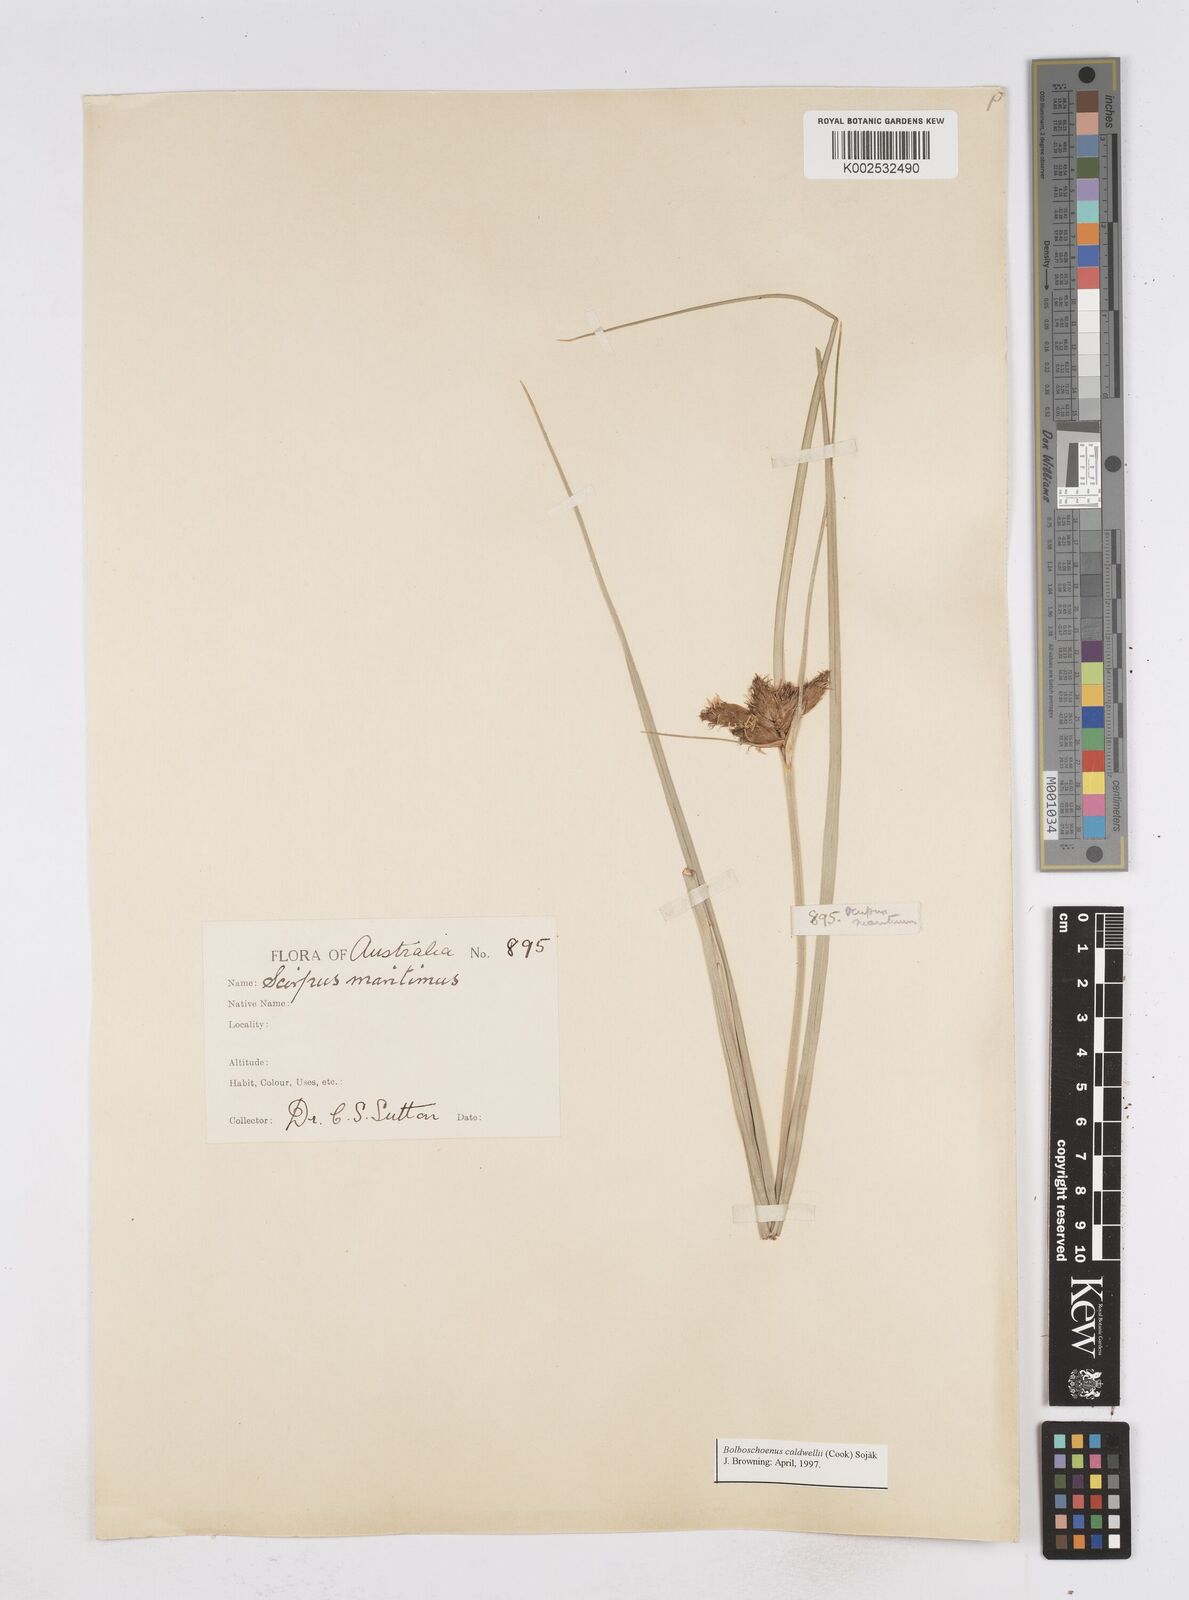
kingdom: Plantae
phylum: Tracheophyta
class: Liliopsida
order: Poales
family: Cyperaceae
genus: Bolboschoenus
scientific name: Bolboschoenus maritimus
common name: Sea club-rush
